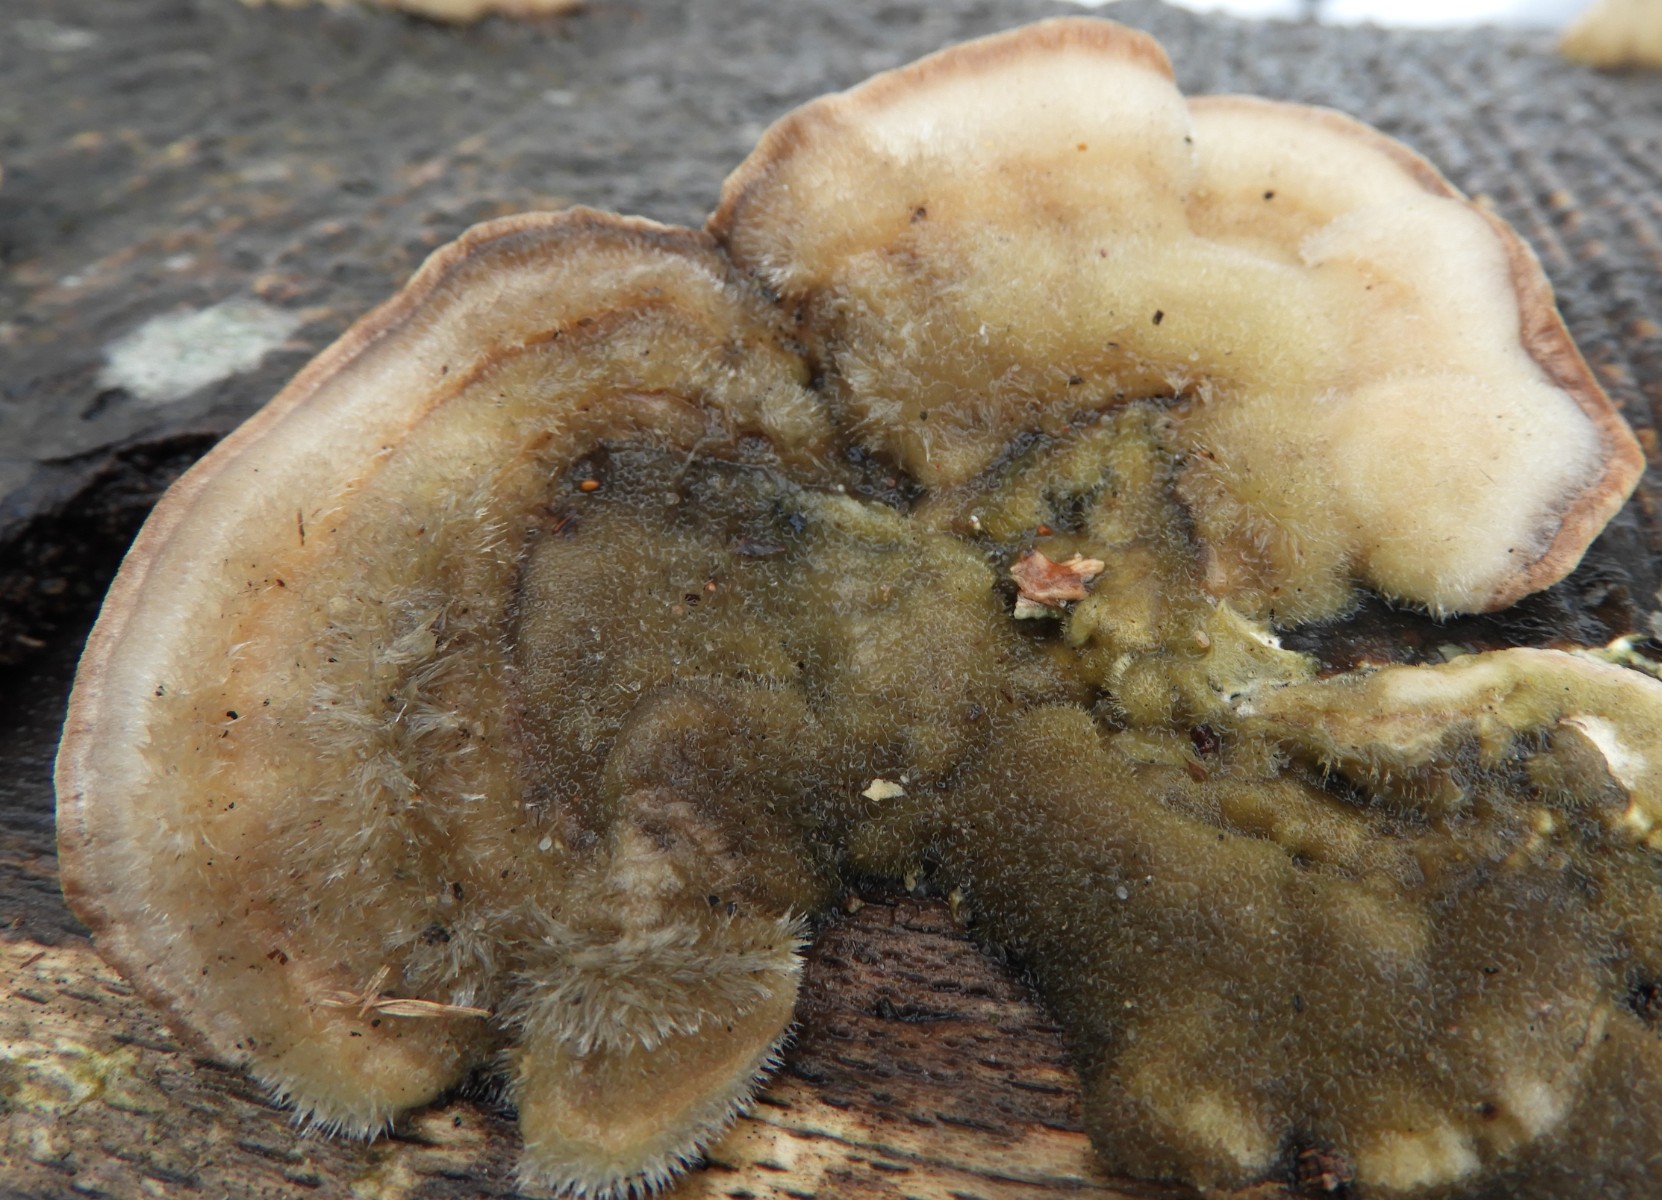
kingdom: Fungi
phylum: Basidiomycota
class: Agaricomycetes
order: Polyporales
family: Polyporaceae
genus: Trametes
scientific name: Trametes hirsuta
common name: håret læderporesvamp
